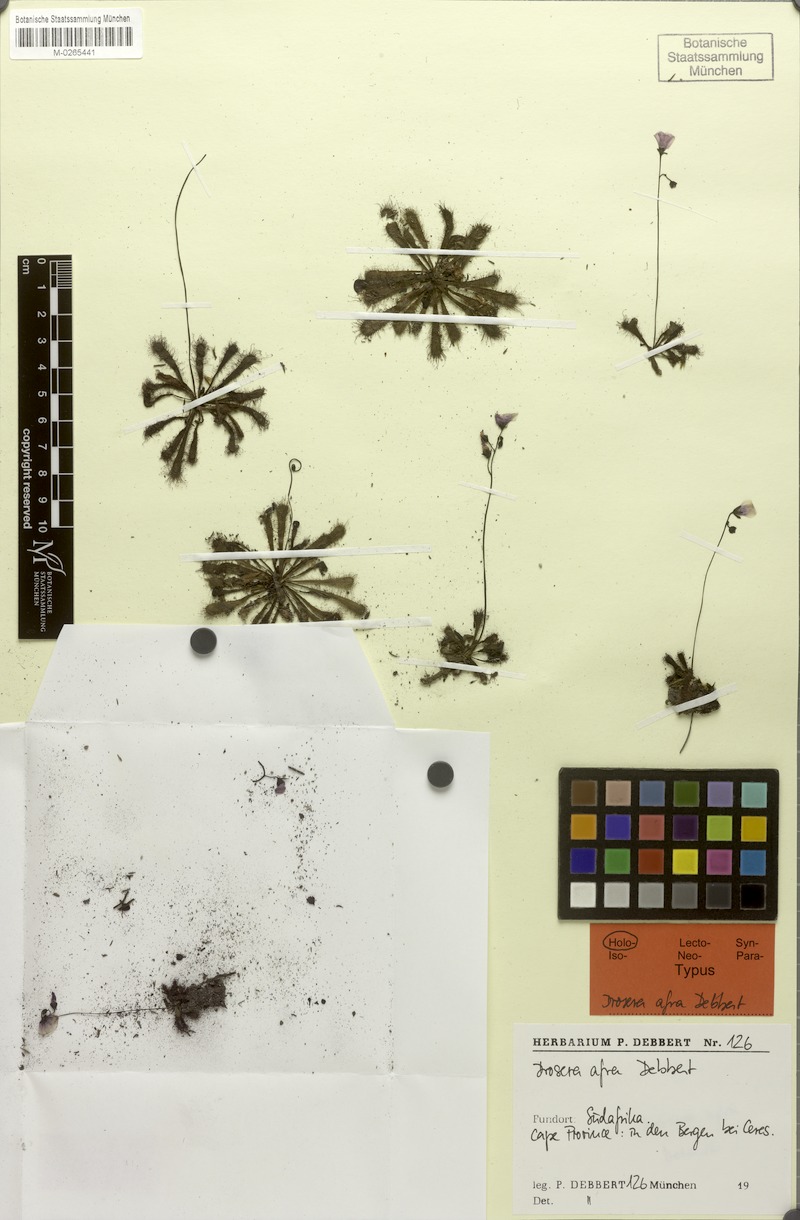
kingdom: Plantae
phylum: Tracheophyta
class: Magnoliopsida
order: Caryophyllales
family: Droseraceae
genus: Drosera
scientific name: Drosera afra
